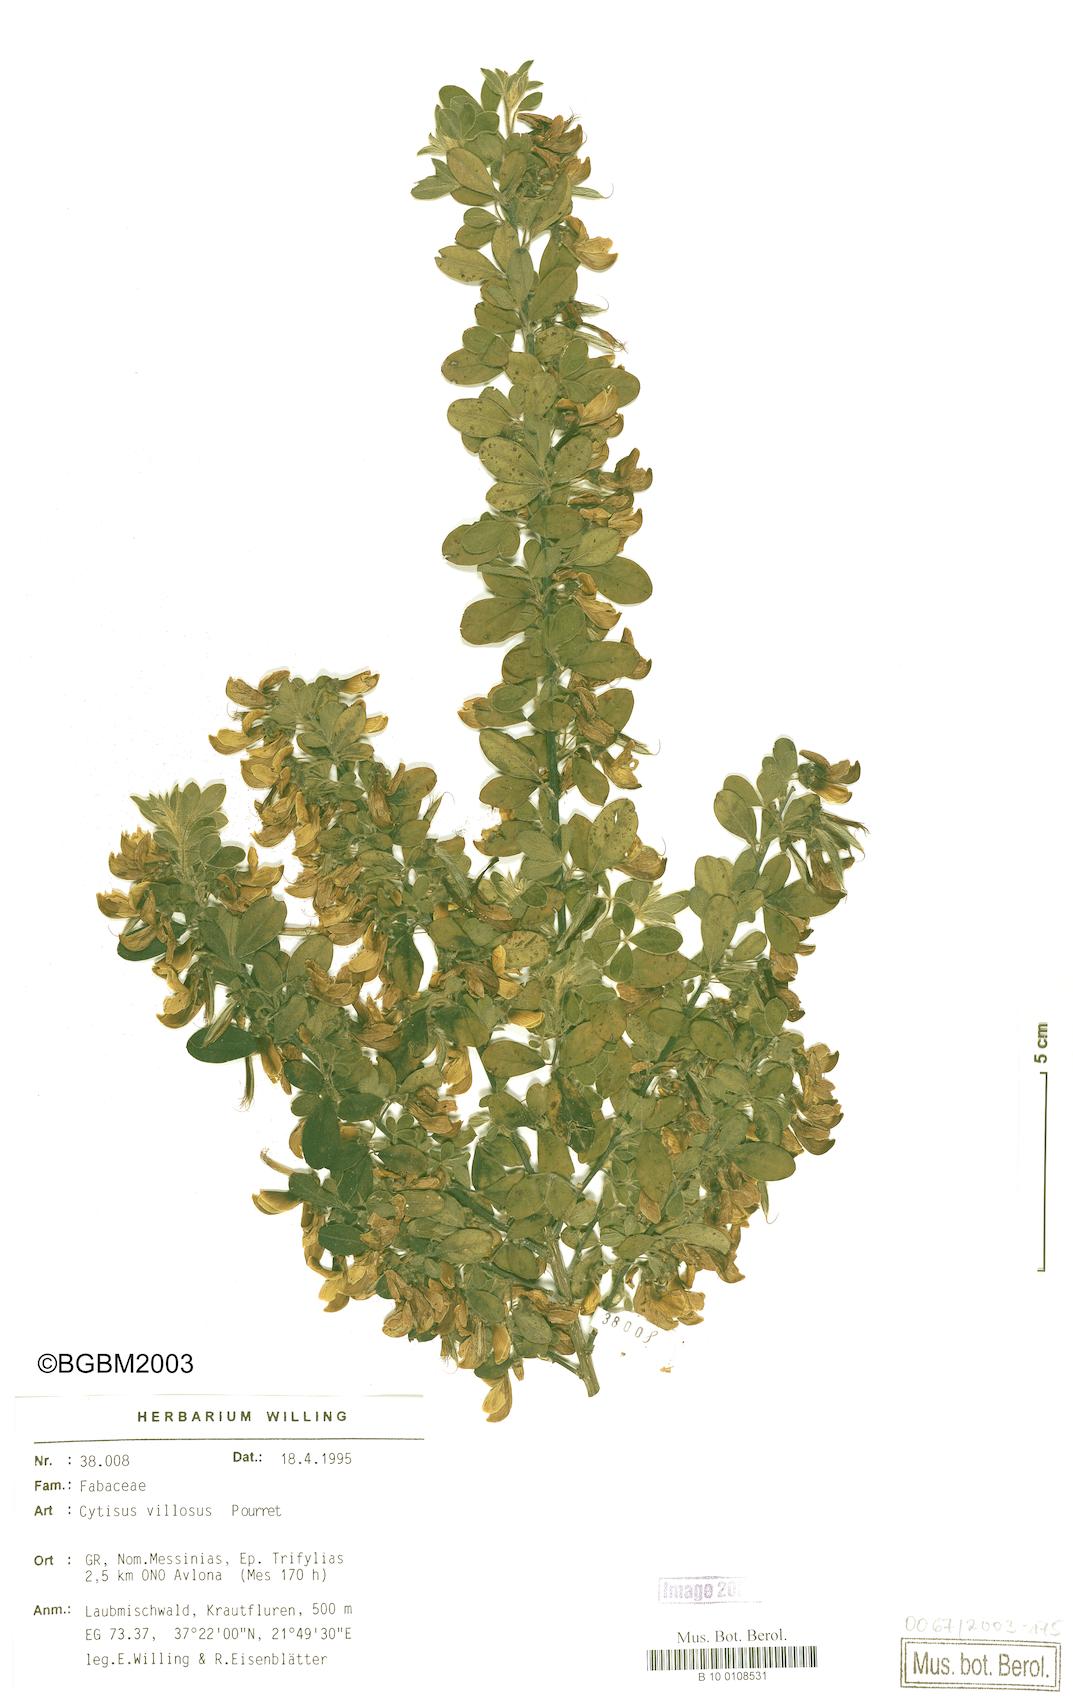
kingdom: Plantae
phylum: Tracheophyta
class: Magnoliopsida
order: Fabales
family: Fabaceae
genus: Cytisus
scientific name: Cytisus villosus
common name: Hairybroom
